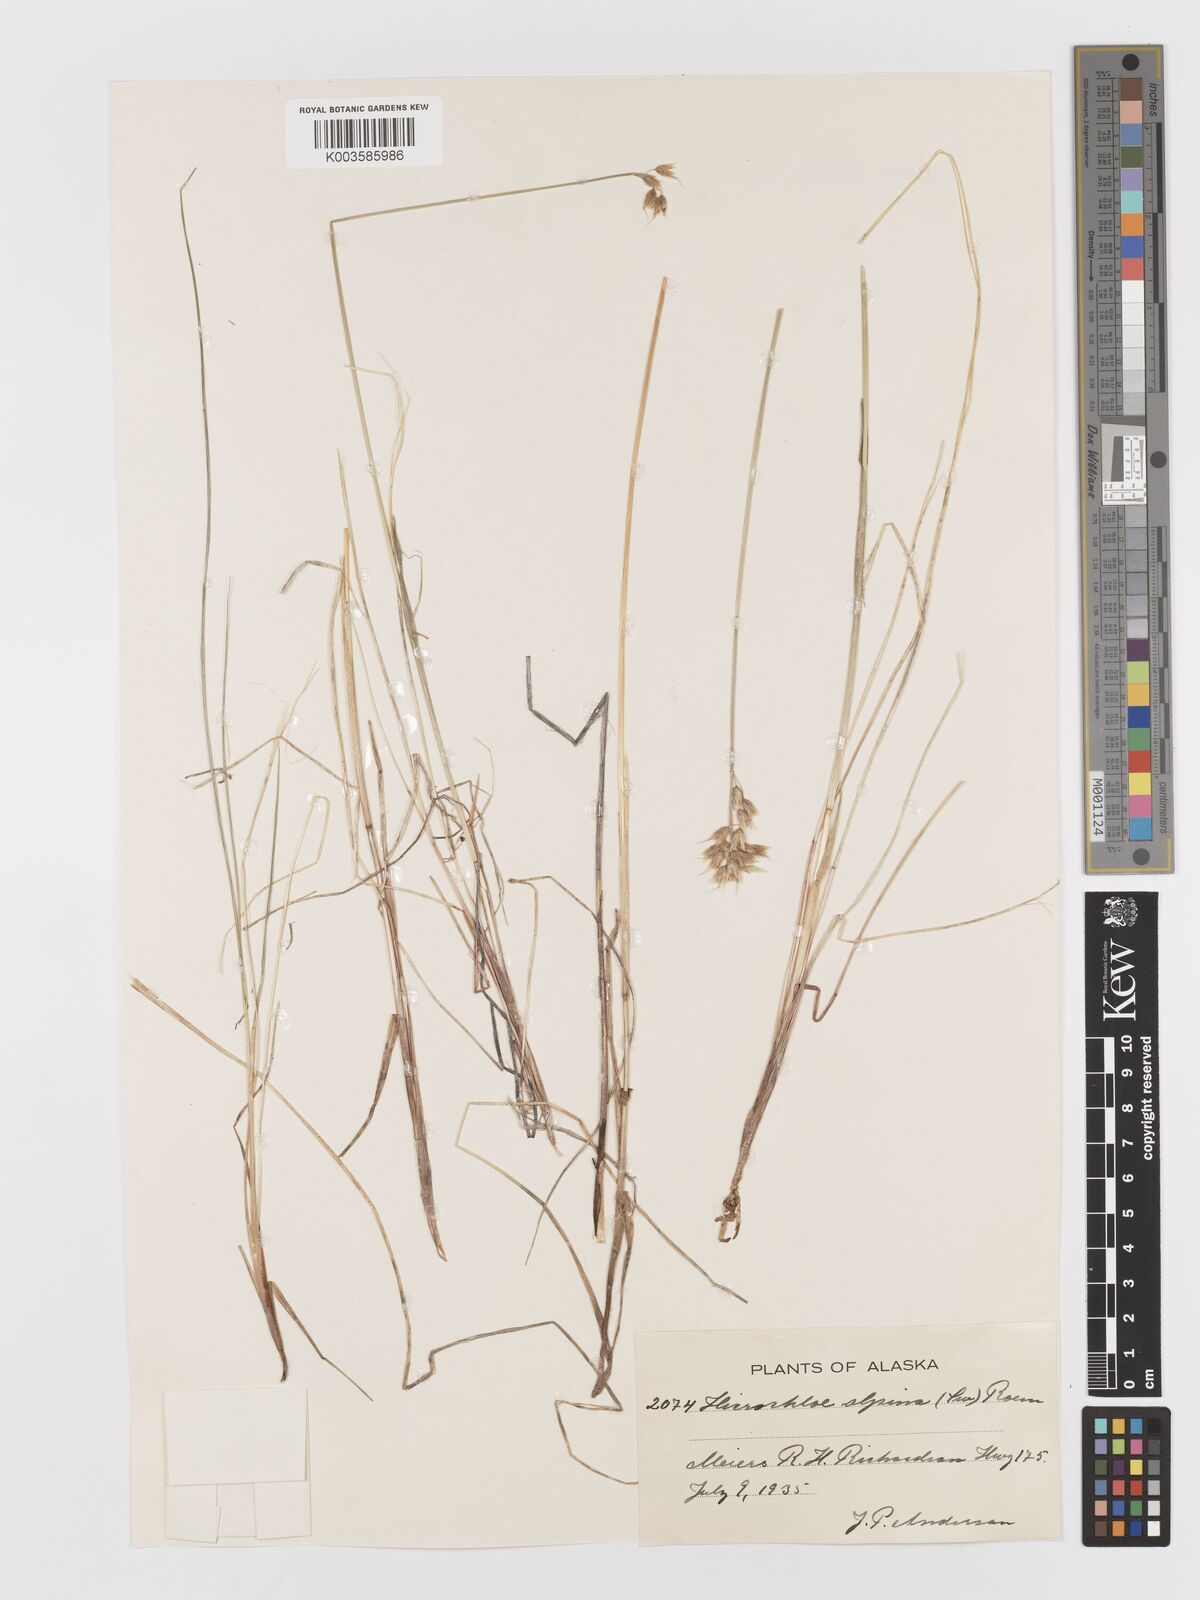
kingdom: Plantae
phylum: Tracheophyta
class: Liliopsida
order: Poales
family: Poaceae
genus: Anthoxanthum
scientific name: Anthoxanthum monticola
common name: Alpine sweetgrass
